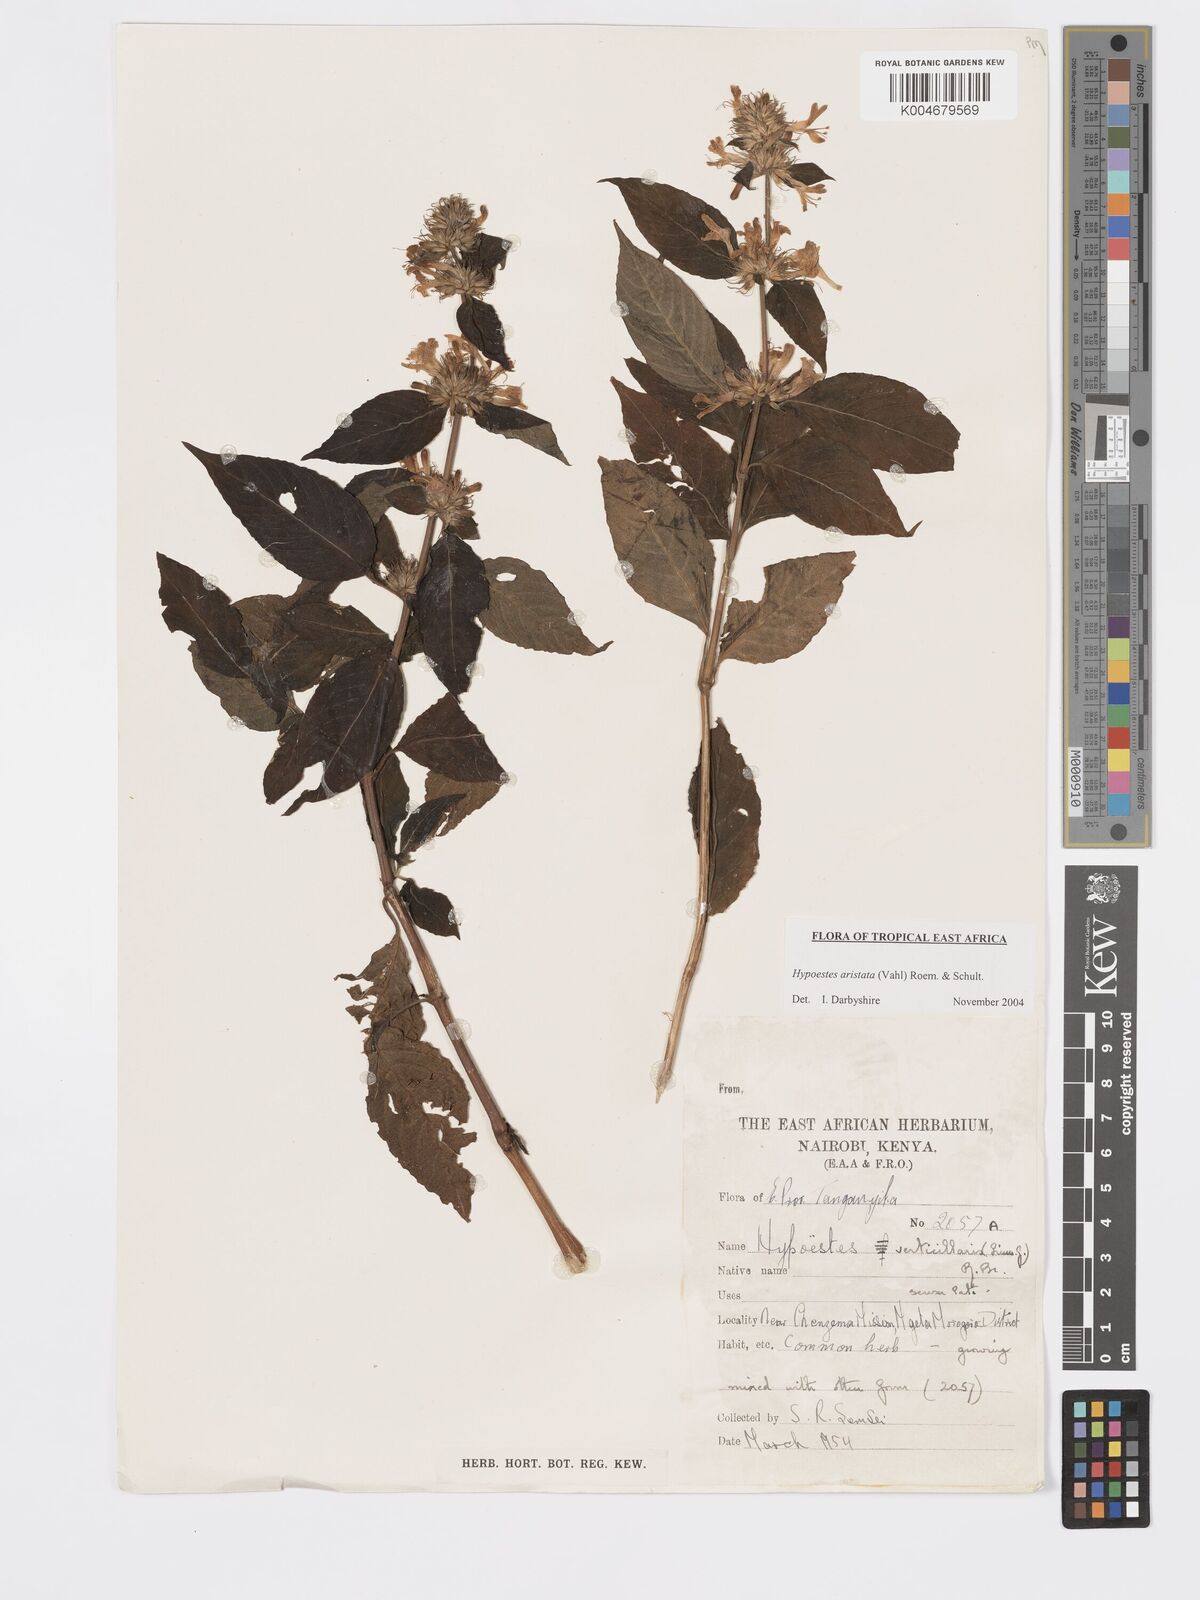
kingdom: Plantae
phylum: Tracheophyta
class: Magnoliopsida
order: Lamiales
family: Acanthaceae
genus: Hypoestes
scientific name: Hypoestes aristata
